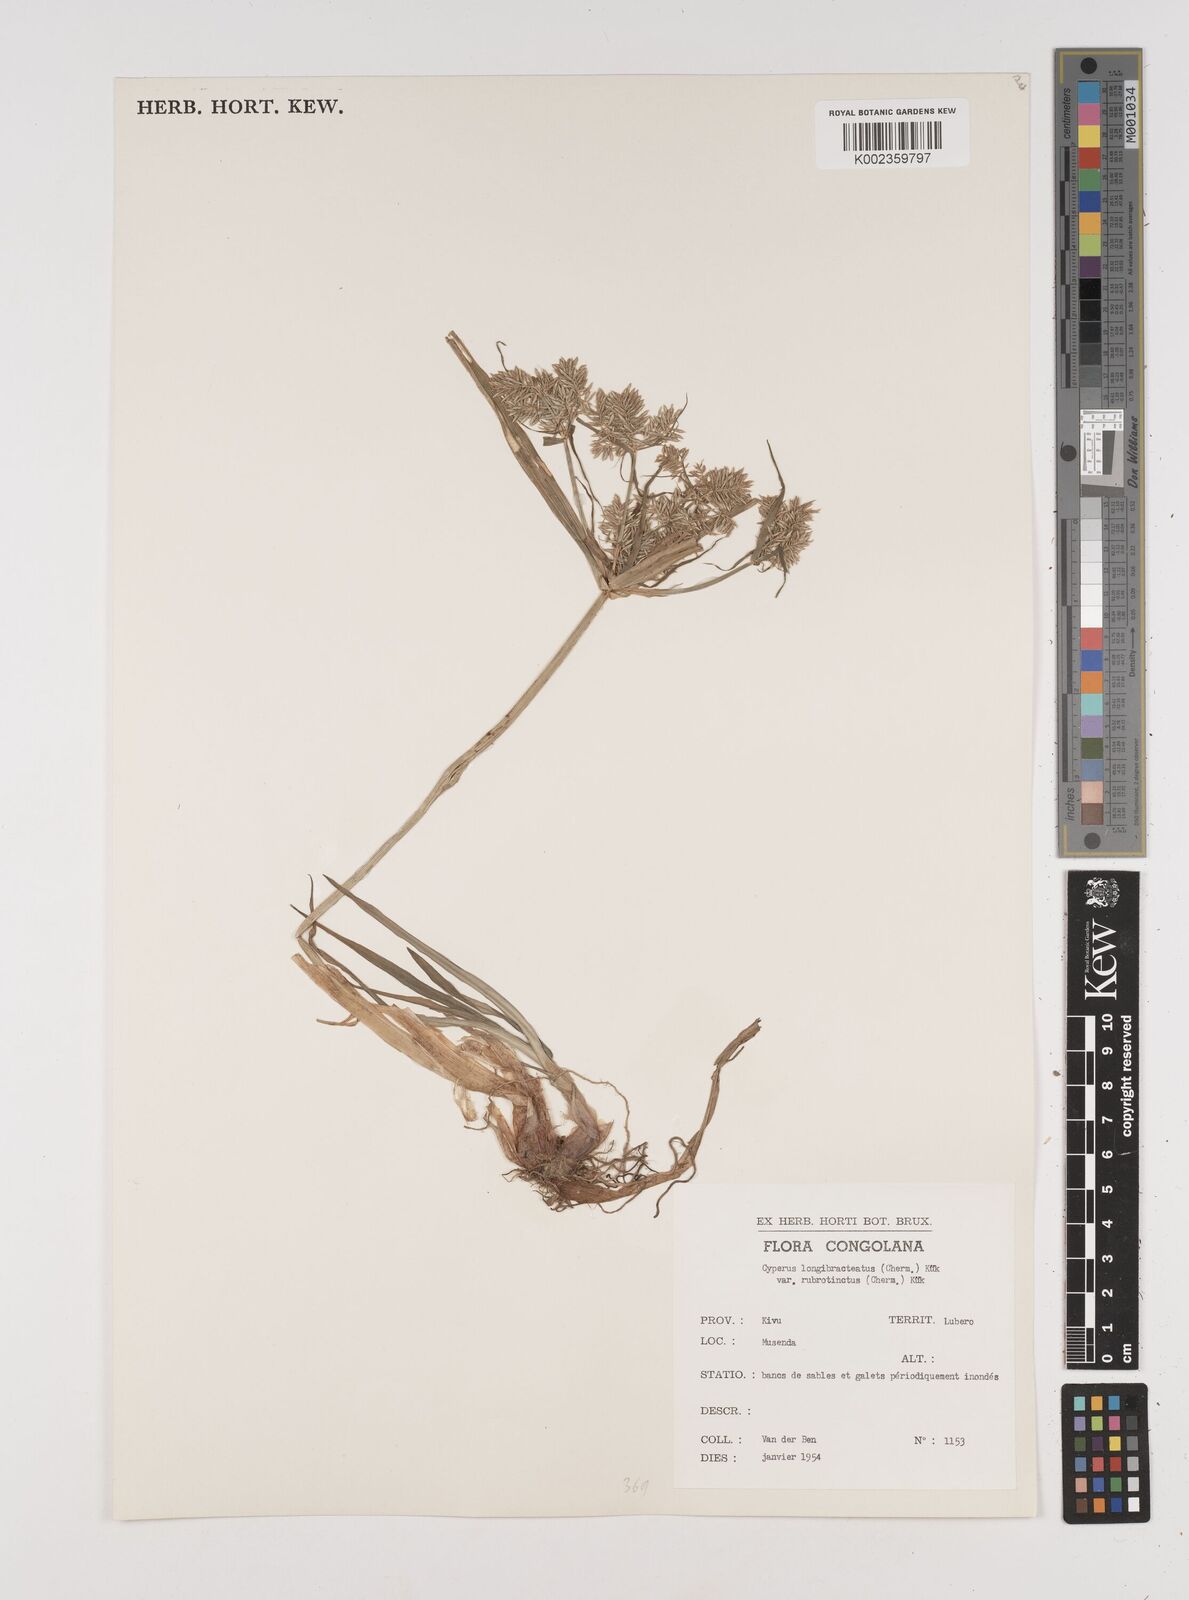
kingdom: Plantae
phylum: Tracheophyta
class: Liliopsida
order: Poales
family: Cyperaceae
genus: Cyperus
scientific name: Cyperus distans
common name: Slender cyperus
